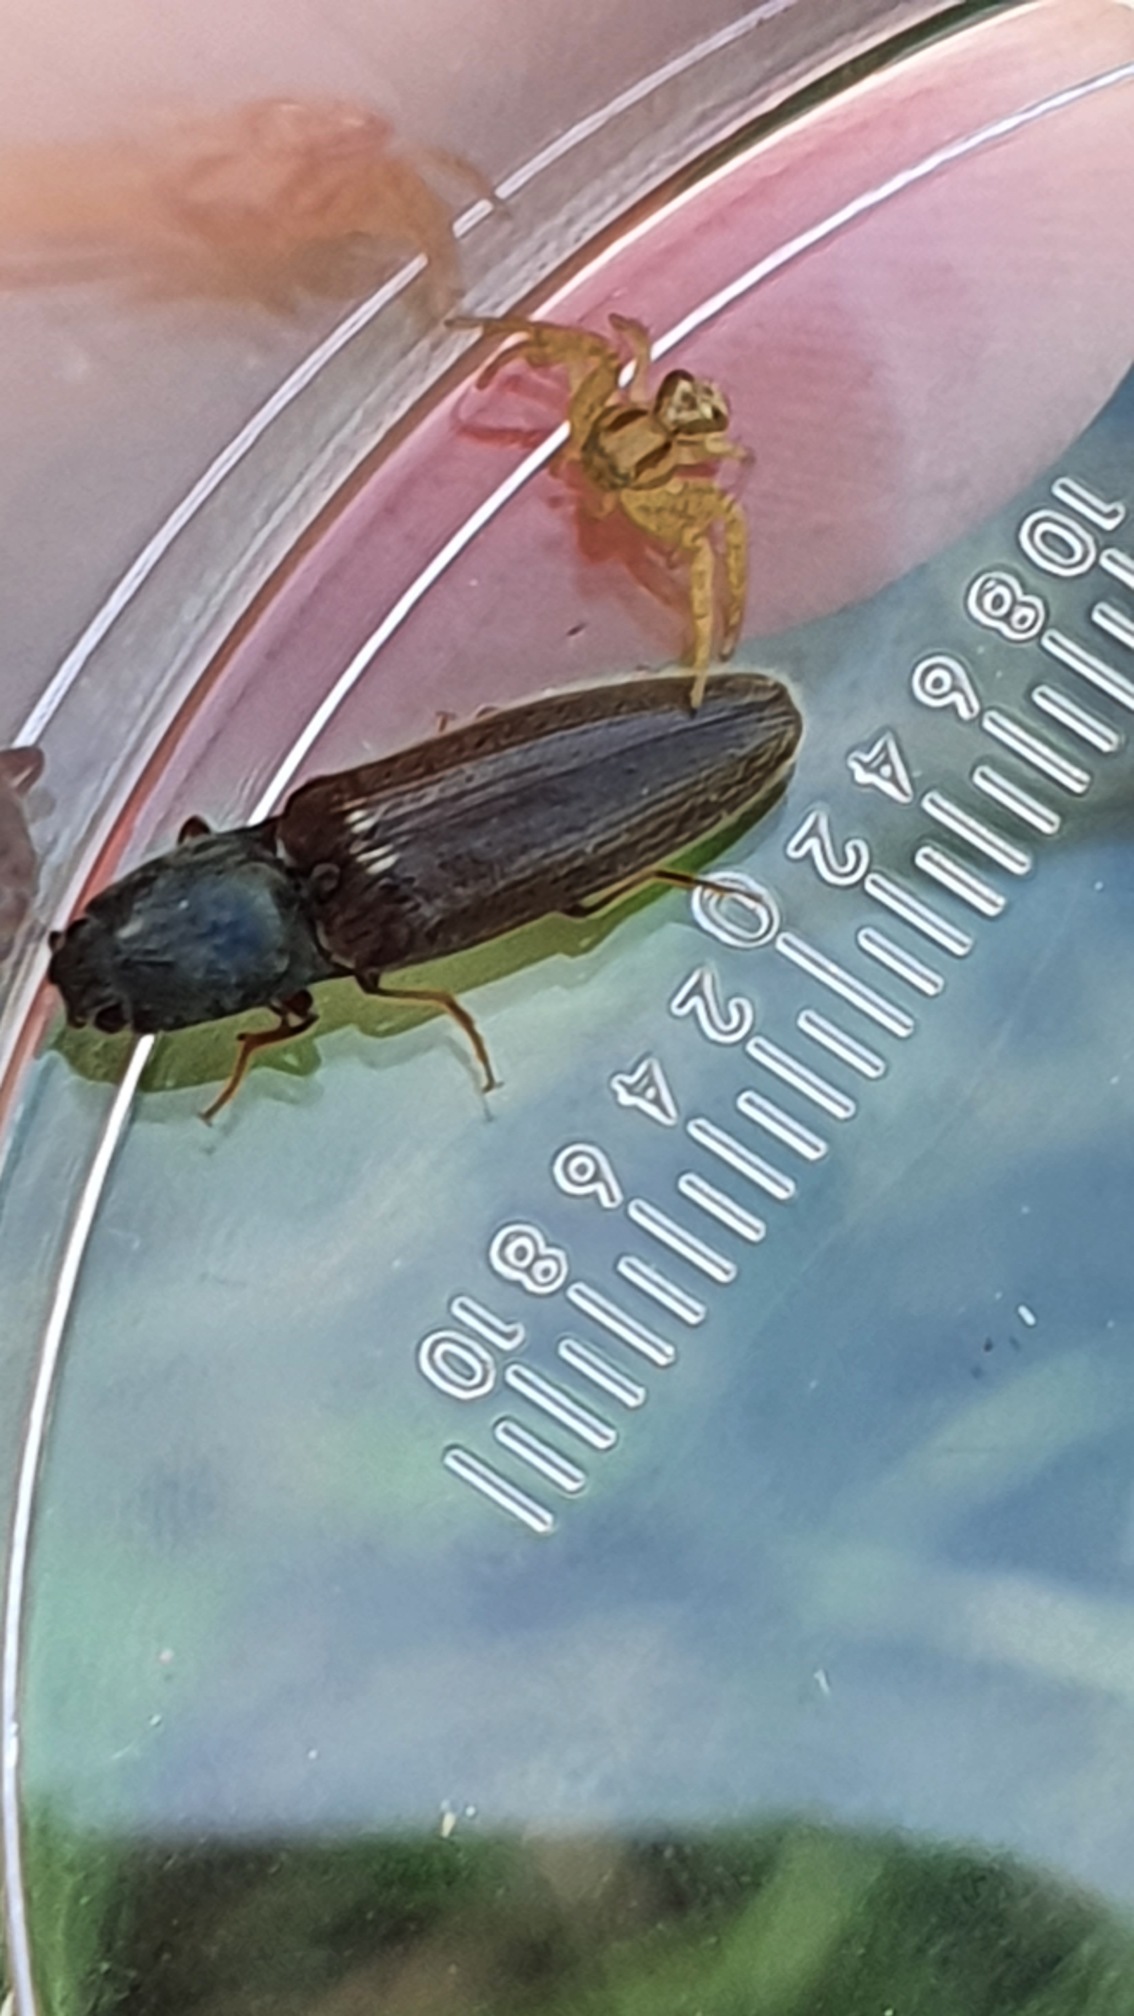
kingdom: Animalia
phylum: Arthropoda
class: Insecta
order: Coleoptera
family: Elateridae
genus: Athous
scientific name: Athous haemorrhoidalis
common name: Rødhalet busksmælder
